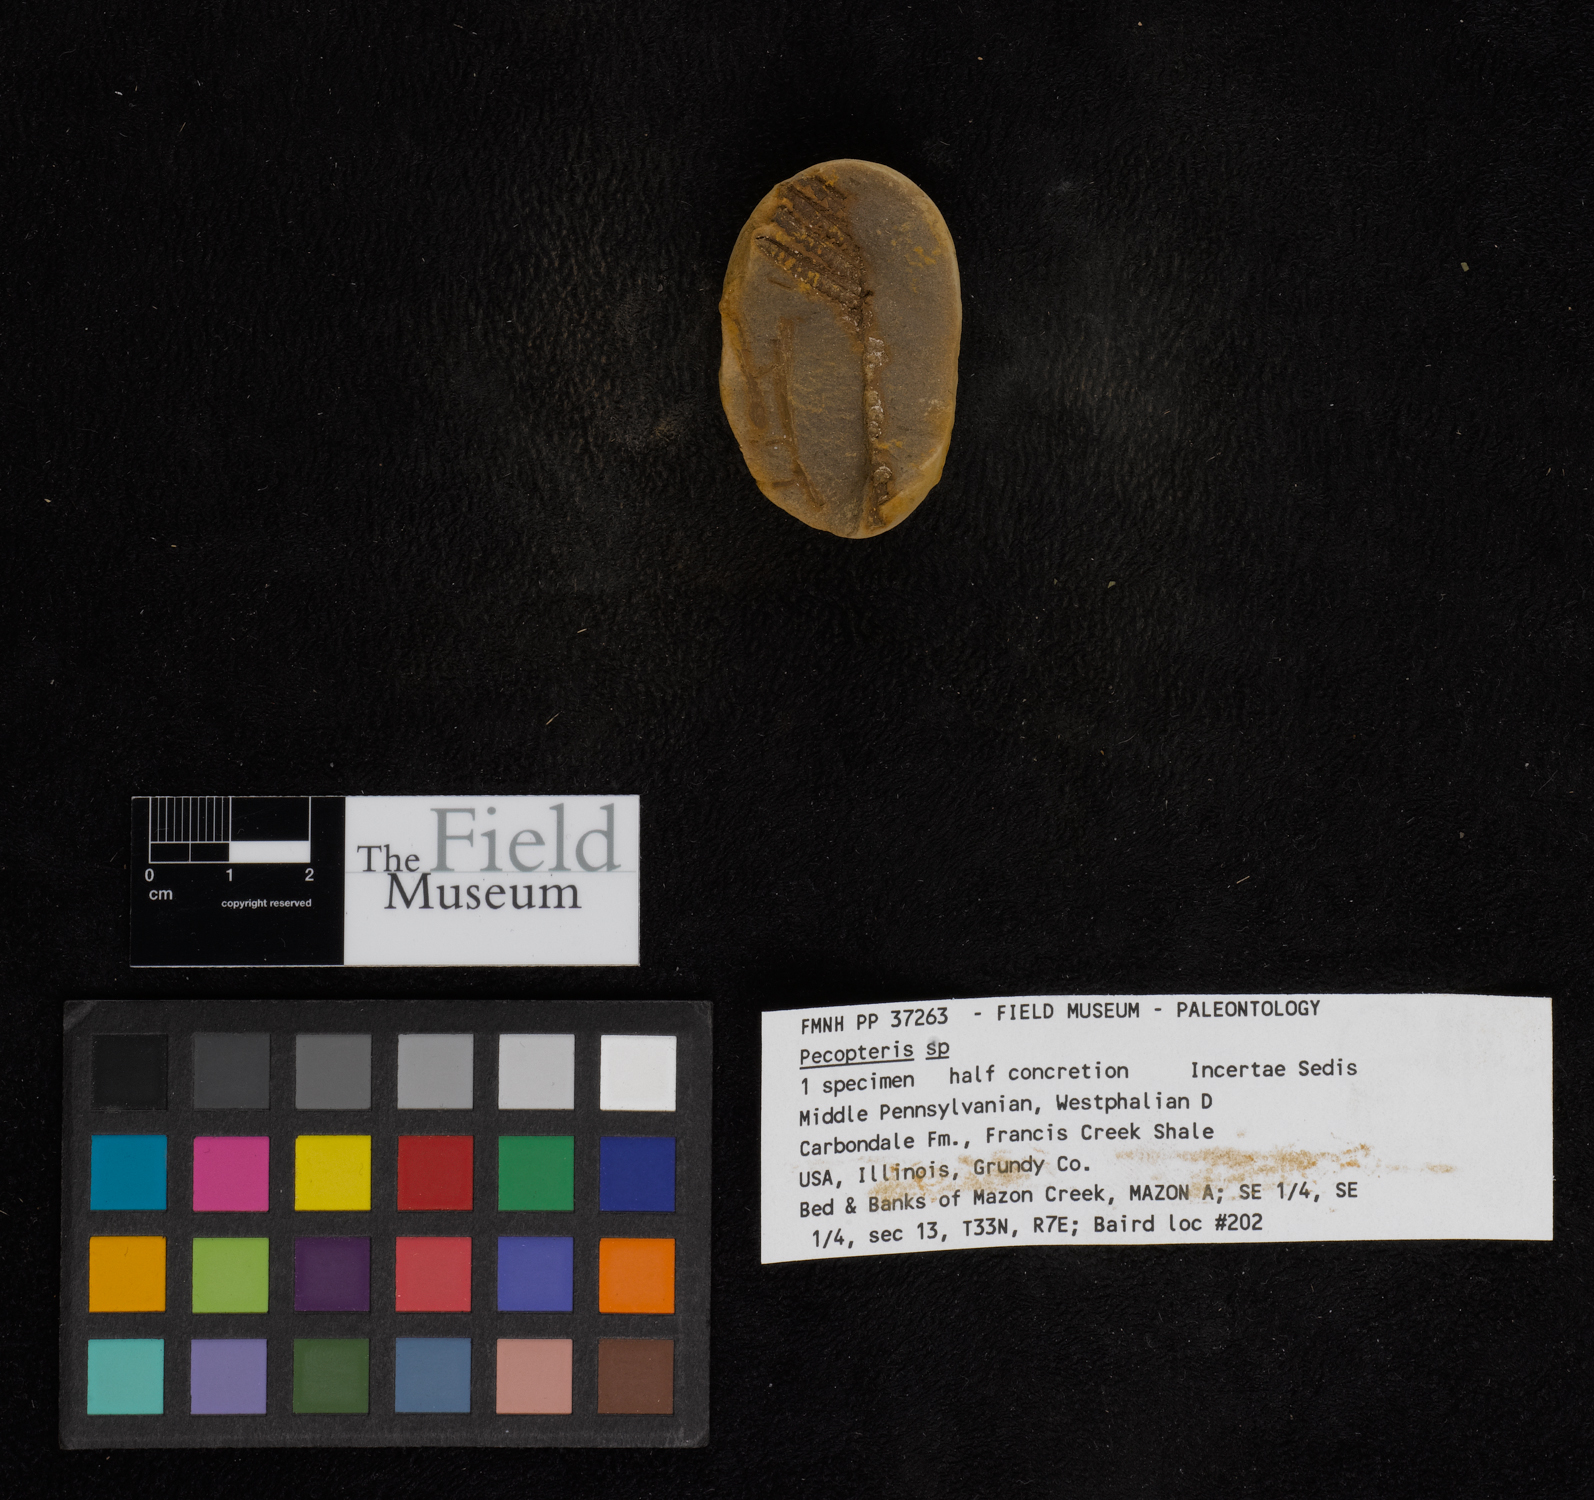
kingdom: Plantae
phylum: Tracheophyta
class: Polypodiopsida
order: Marattiales
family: Asterothecaceae
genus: Pecopteris
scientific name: Pecopteris
